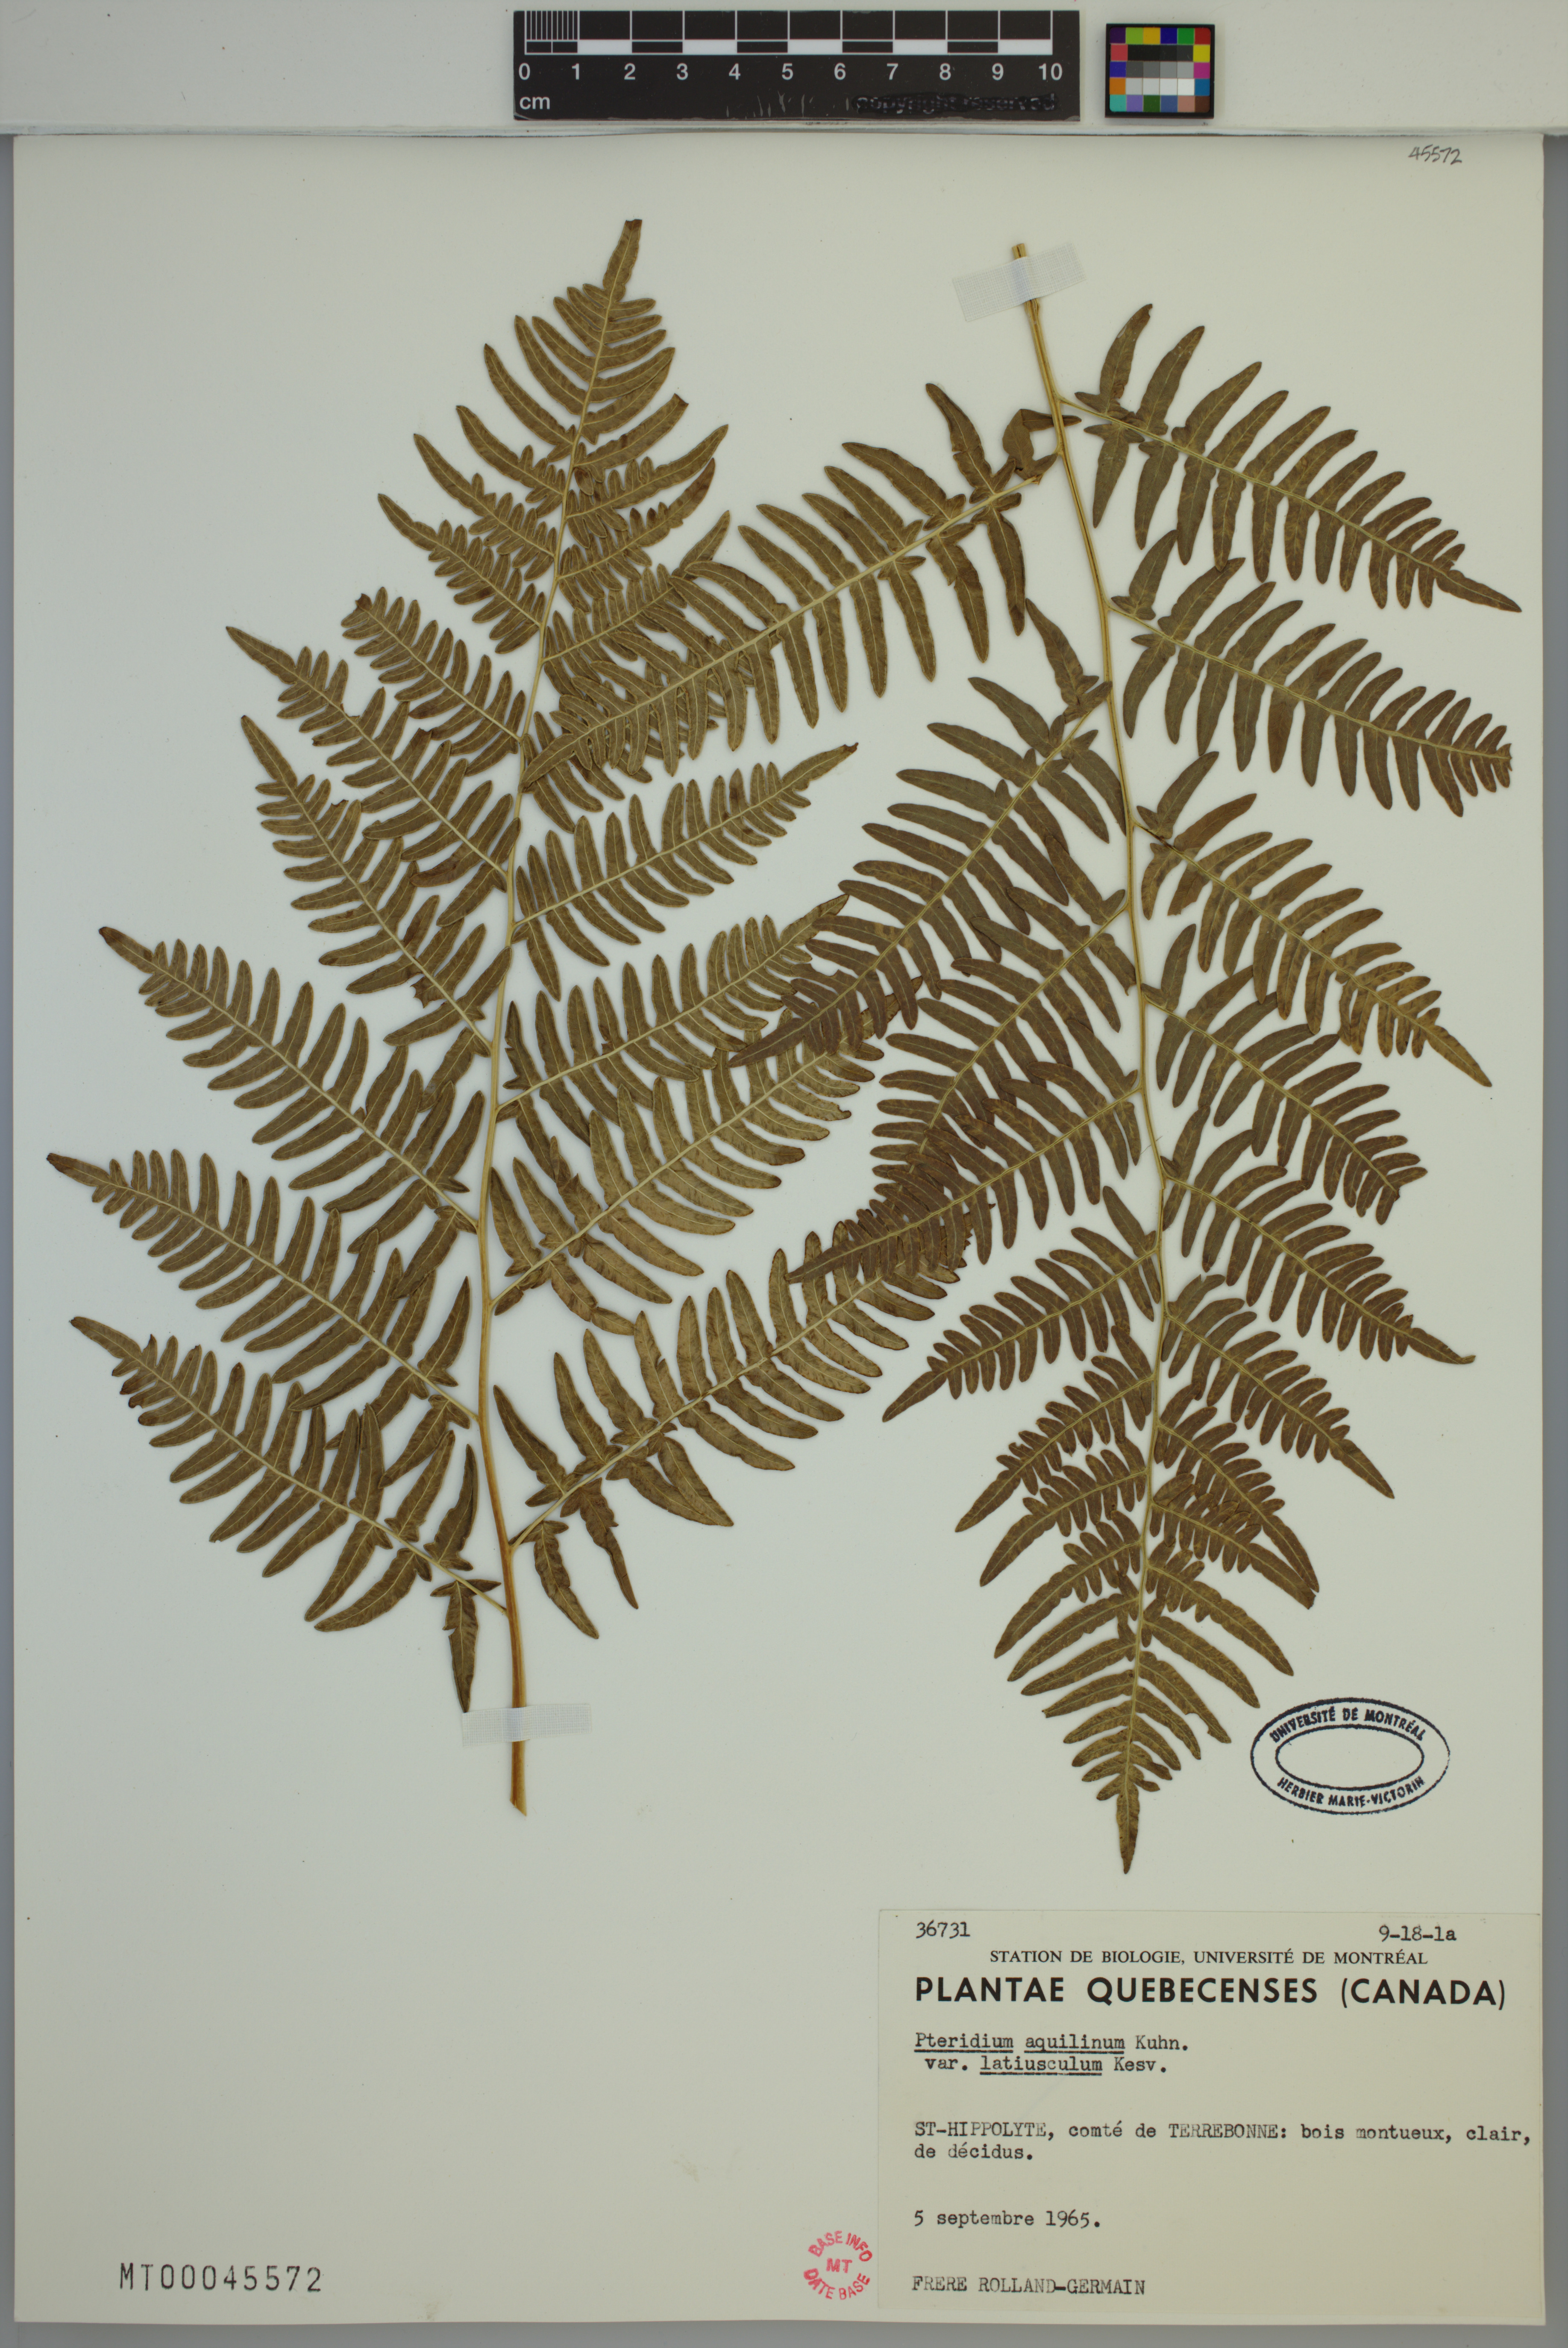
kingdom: Plantae
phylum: Tracheophyta
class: Polypodiopsida
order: Polypodiales
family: Dennstaedtiaceae
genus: Pteridium
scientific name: Pteridium aquilinum
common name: Bracken
